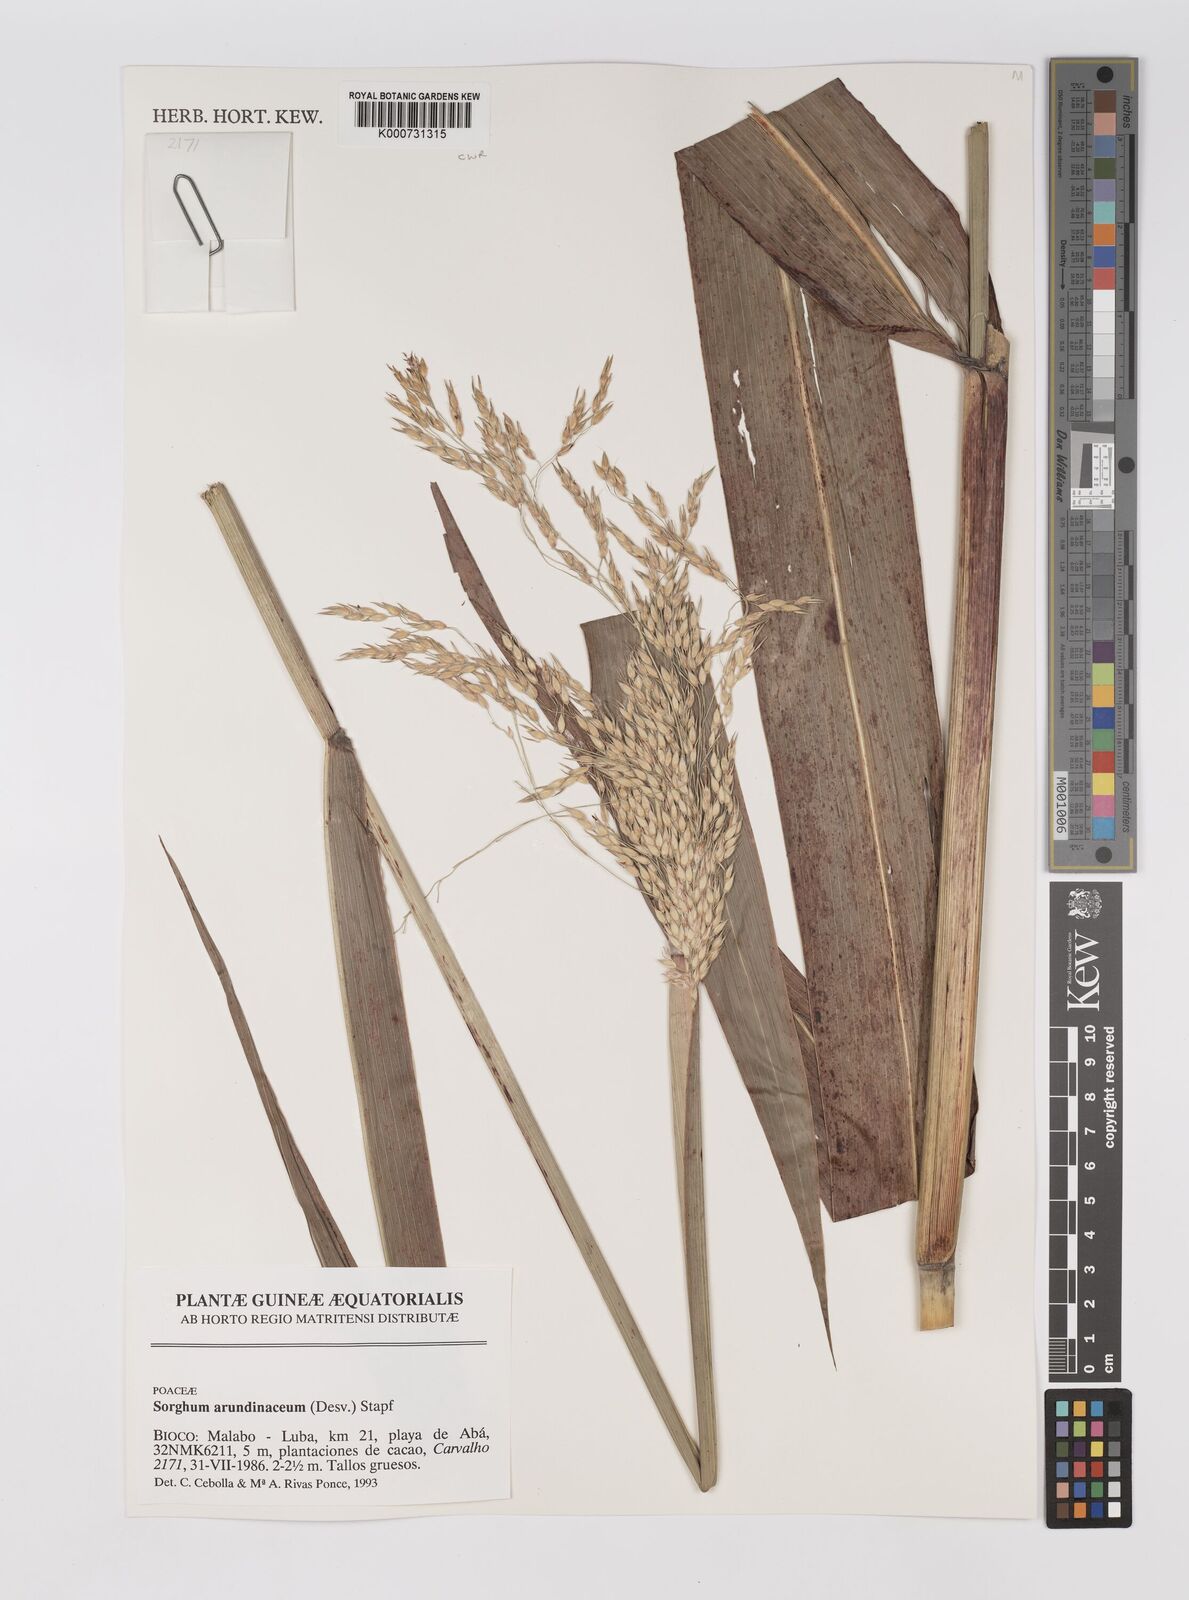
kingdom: Plantae
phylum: Tracheophyta
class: Liliopsida
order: Poales
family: Poaceae
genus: Sorghum
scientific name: Sorghum arundinaceum
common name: Sorghum
